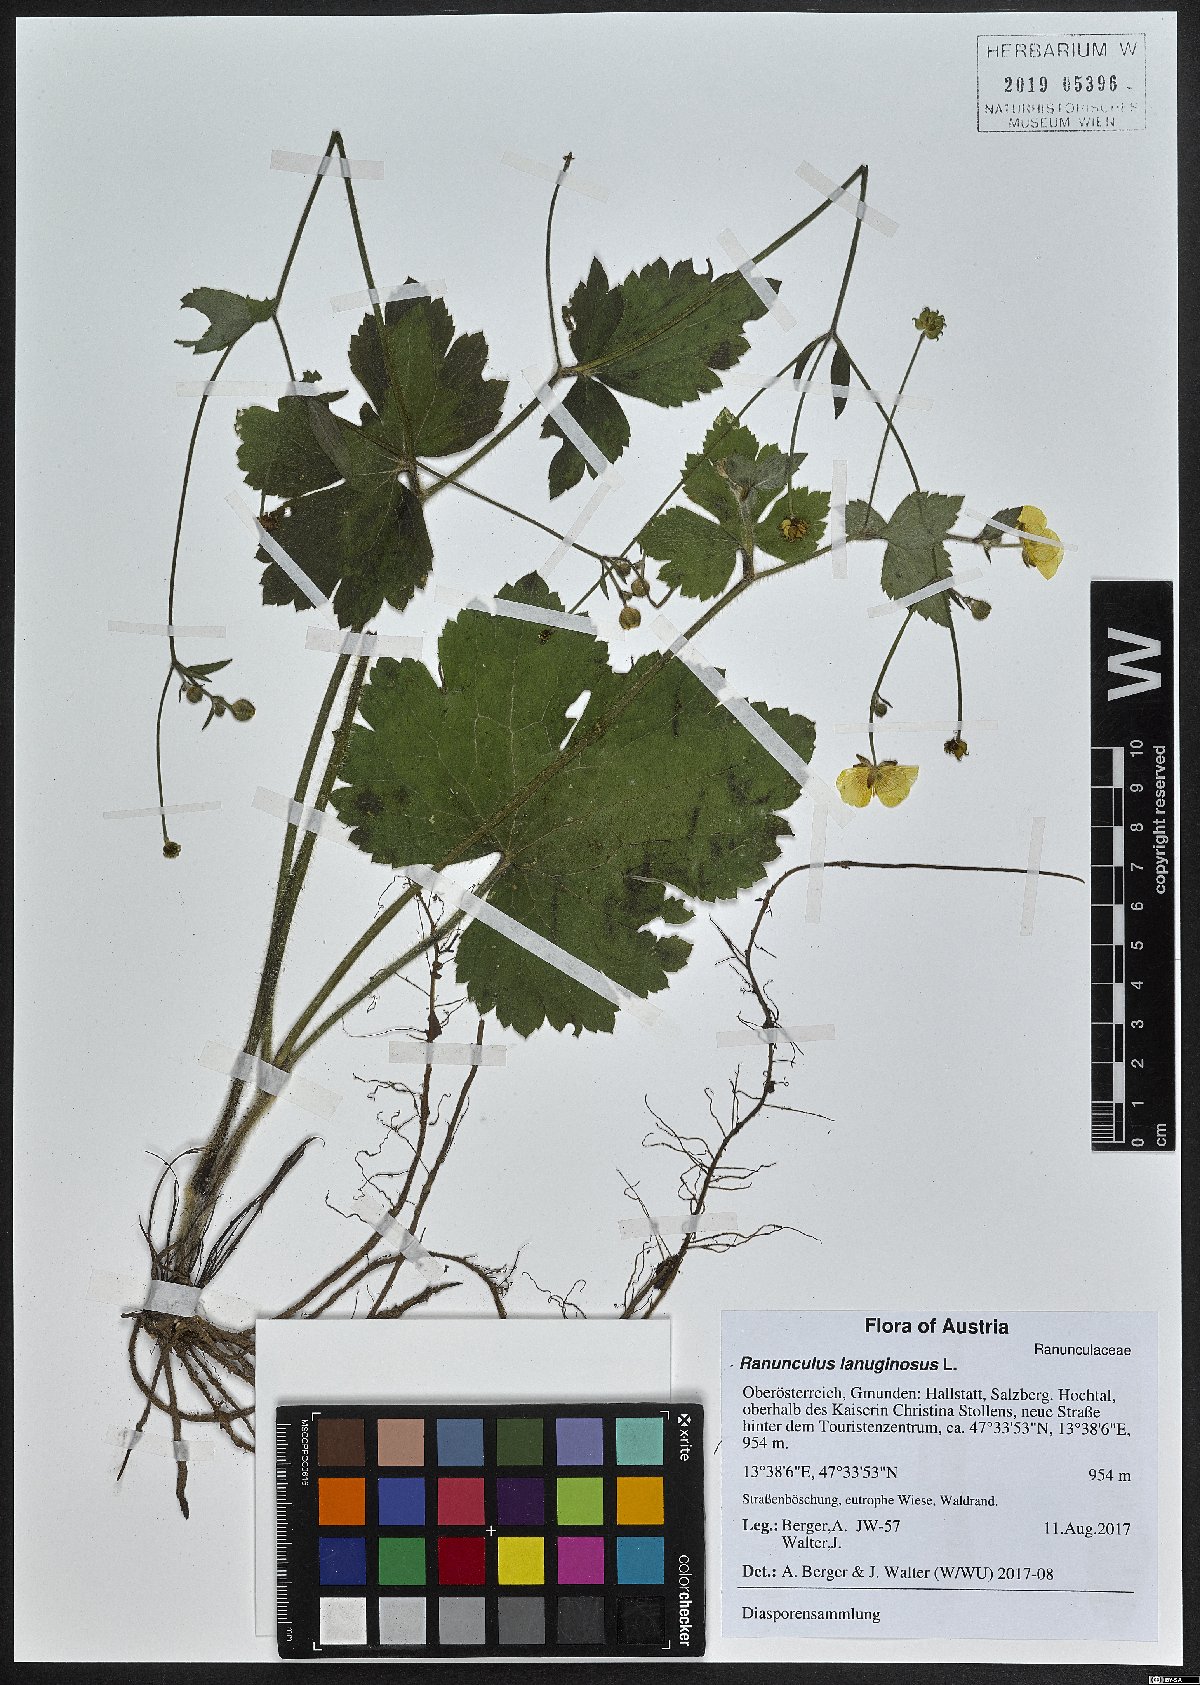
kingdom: Plantae
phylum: Tracheophyta
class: Magnoliopsida
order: Ranunculales
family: Ranunculaceae
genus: Ranunculus
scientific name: Ranunculus lanuginosus
